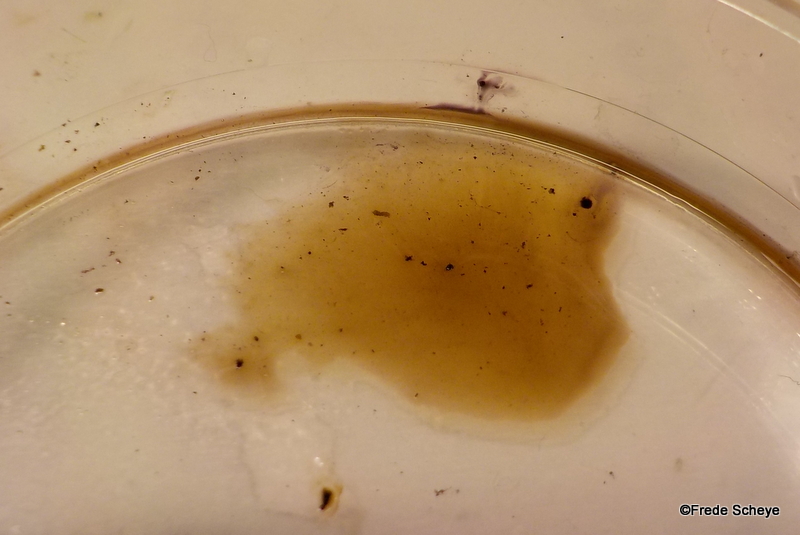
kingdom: Fungi
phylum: Ascomycota
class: Sordariomycetes
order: Xylariales
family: Hypoxylaceae
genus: Daldinia
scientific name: Daldinia
